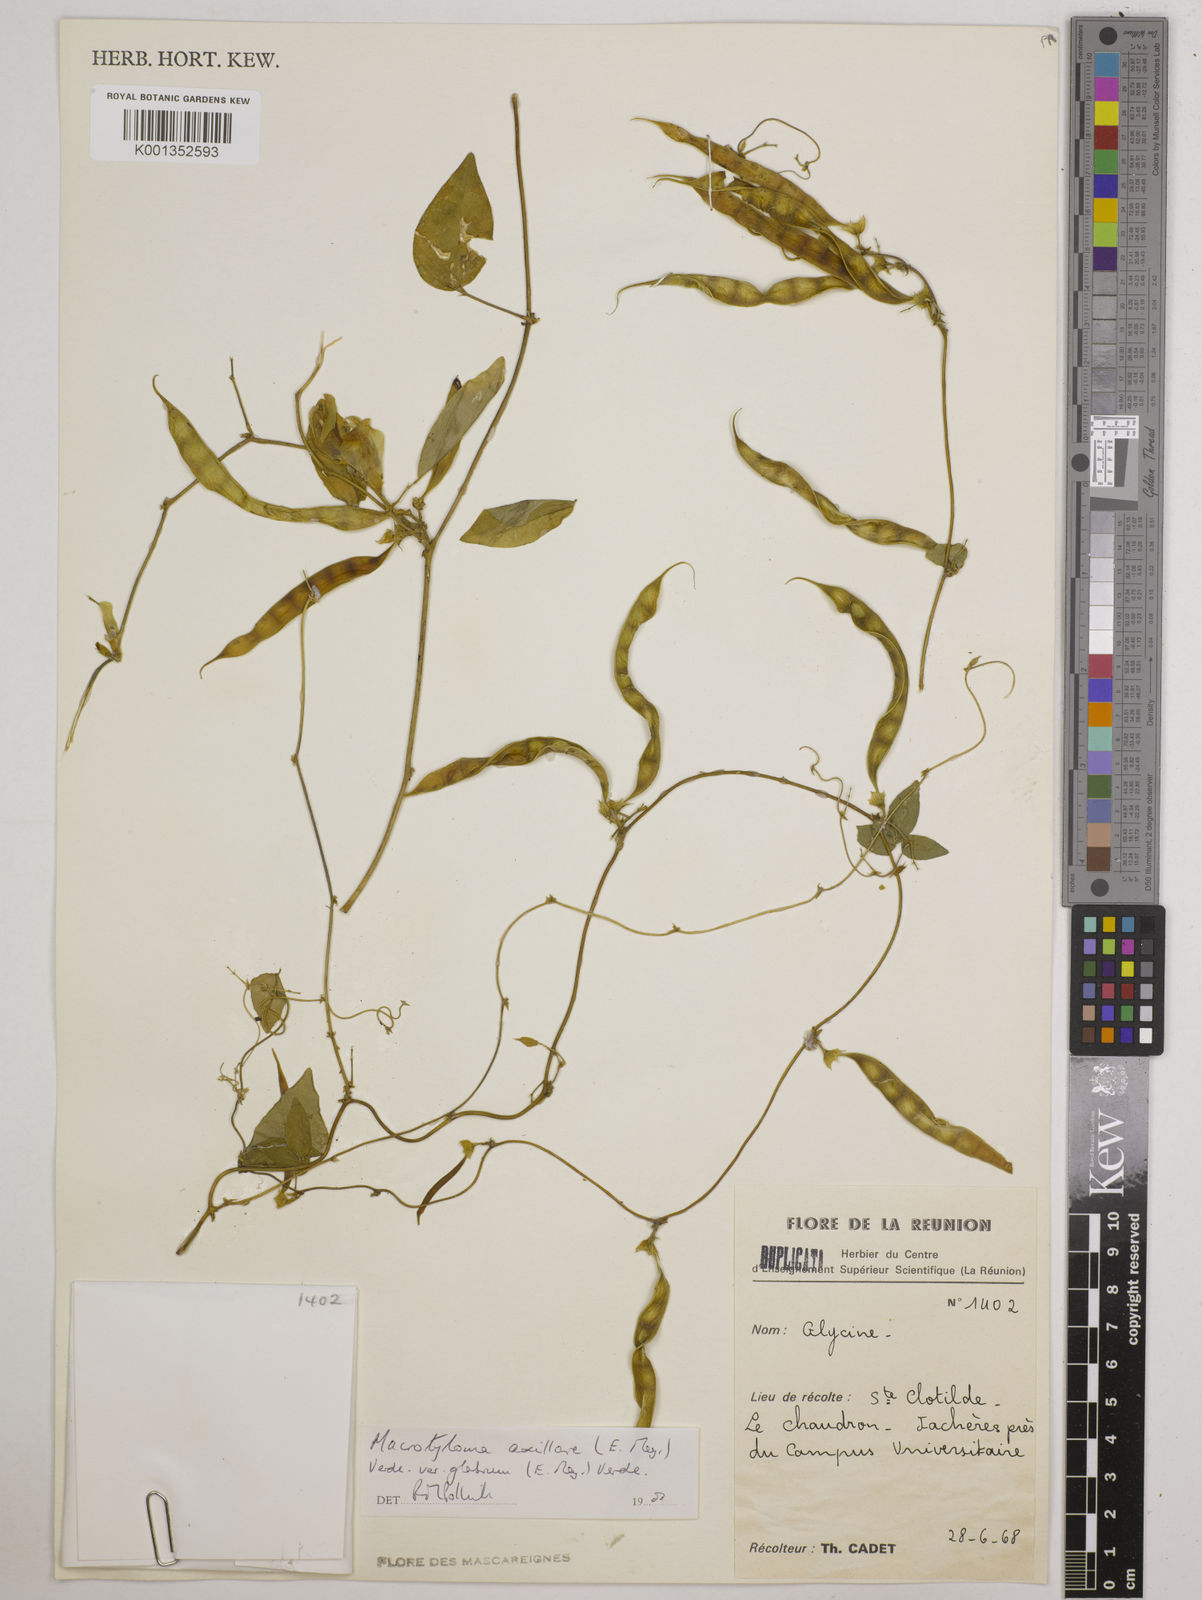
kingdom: Plantae
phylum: Tracheophyta
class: Magnoliopsida
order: Fabales
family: Fabaceae
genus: Macrotyloma
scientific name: Macrotyloma
